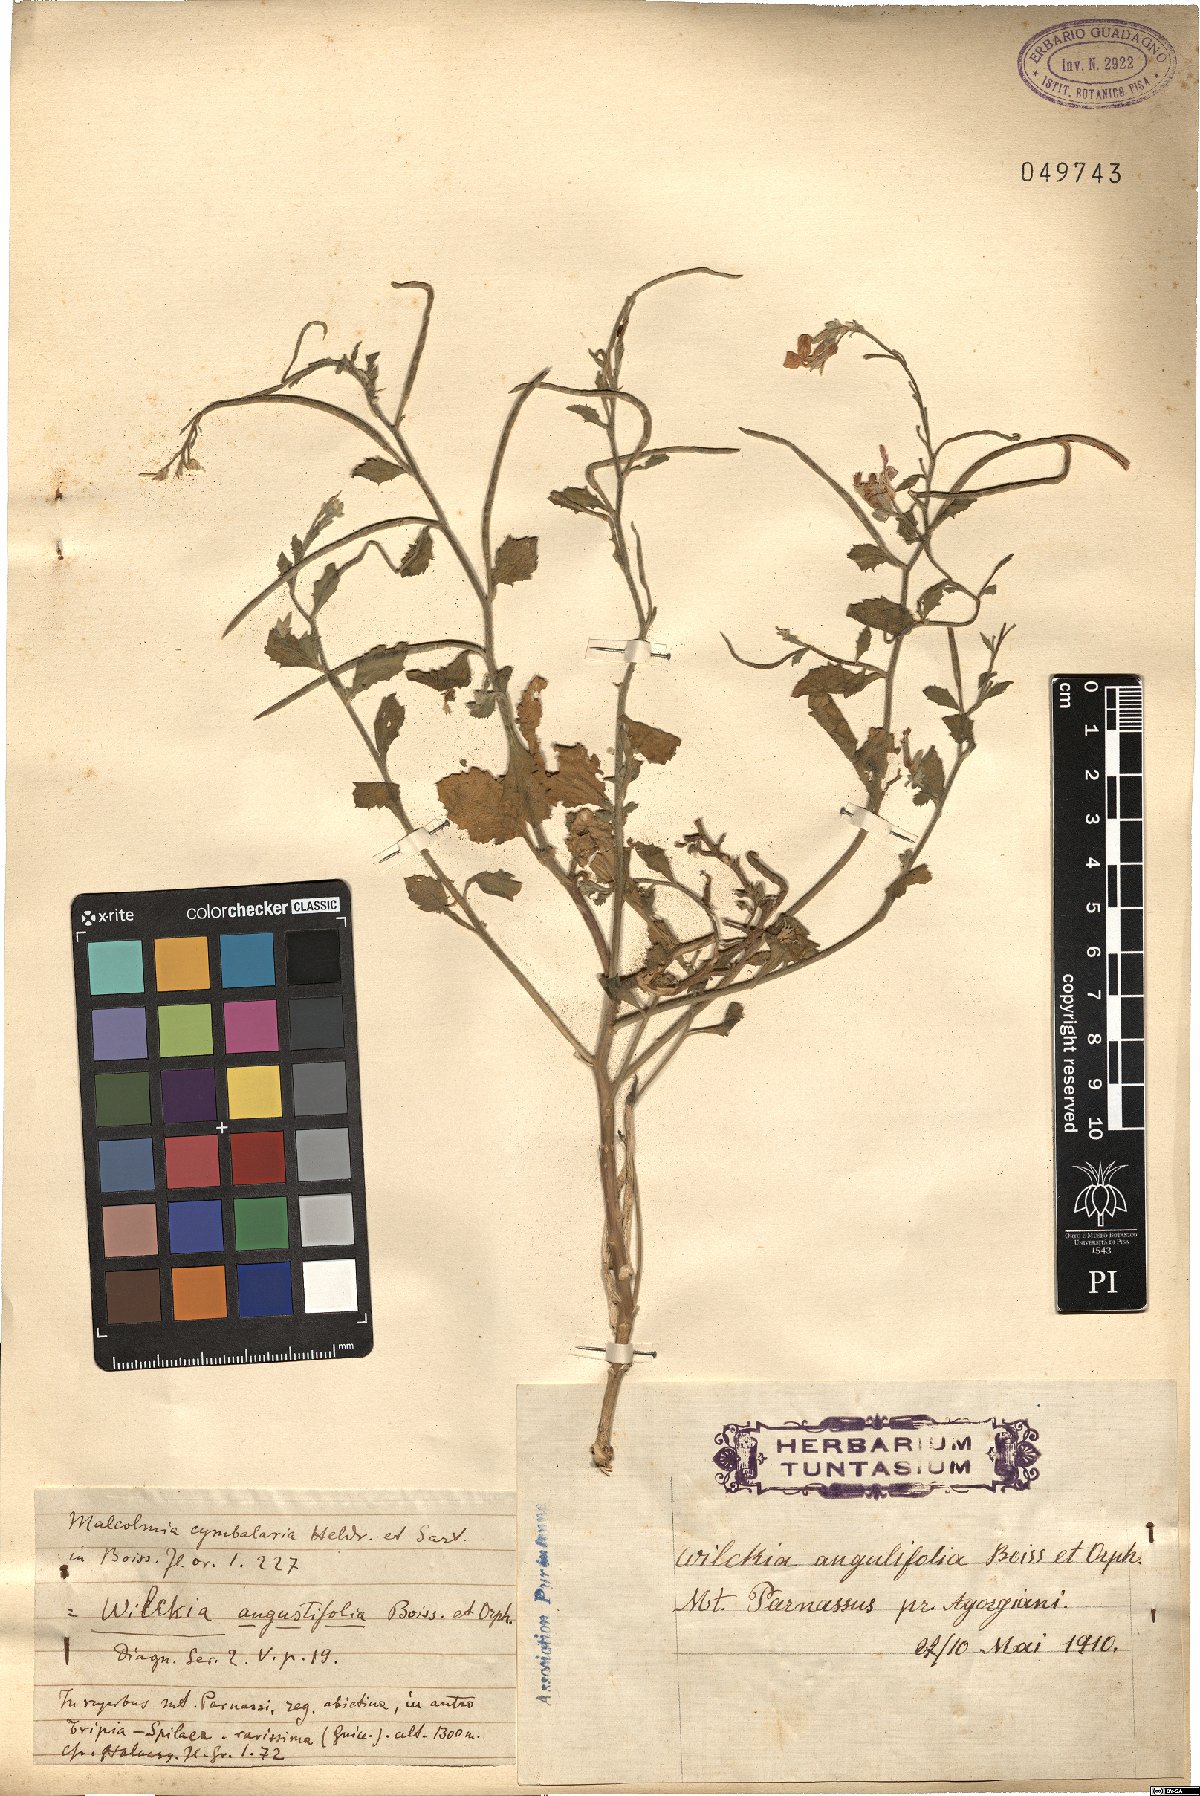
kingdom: Plantae
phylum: Tracheophyta
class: Magnoliopsida
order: Brassicales
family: Brassicaceae
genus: Malcolmia
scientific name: Malcolmia orsiniana
